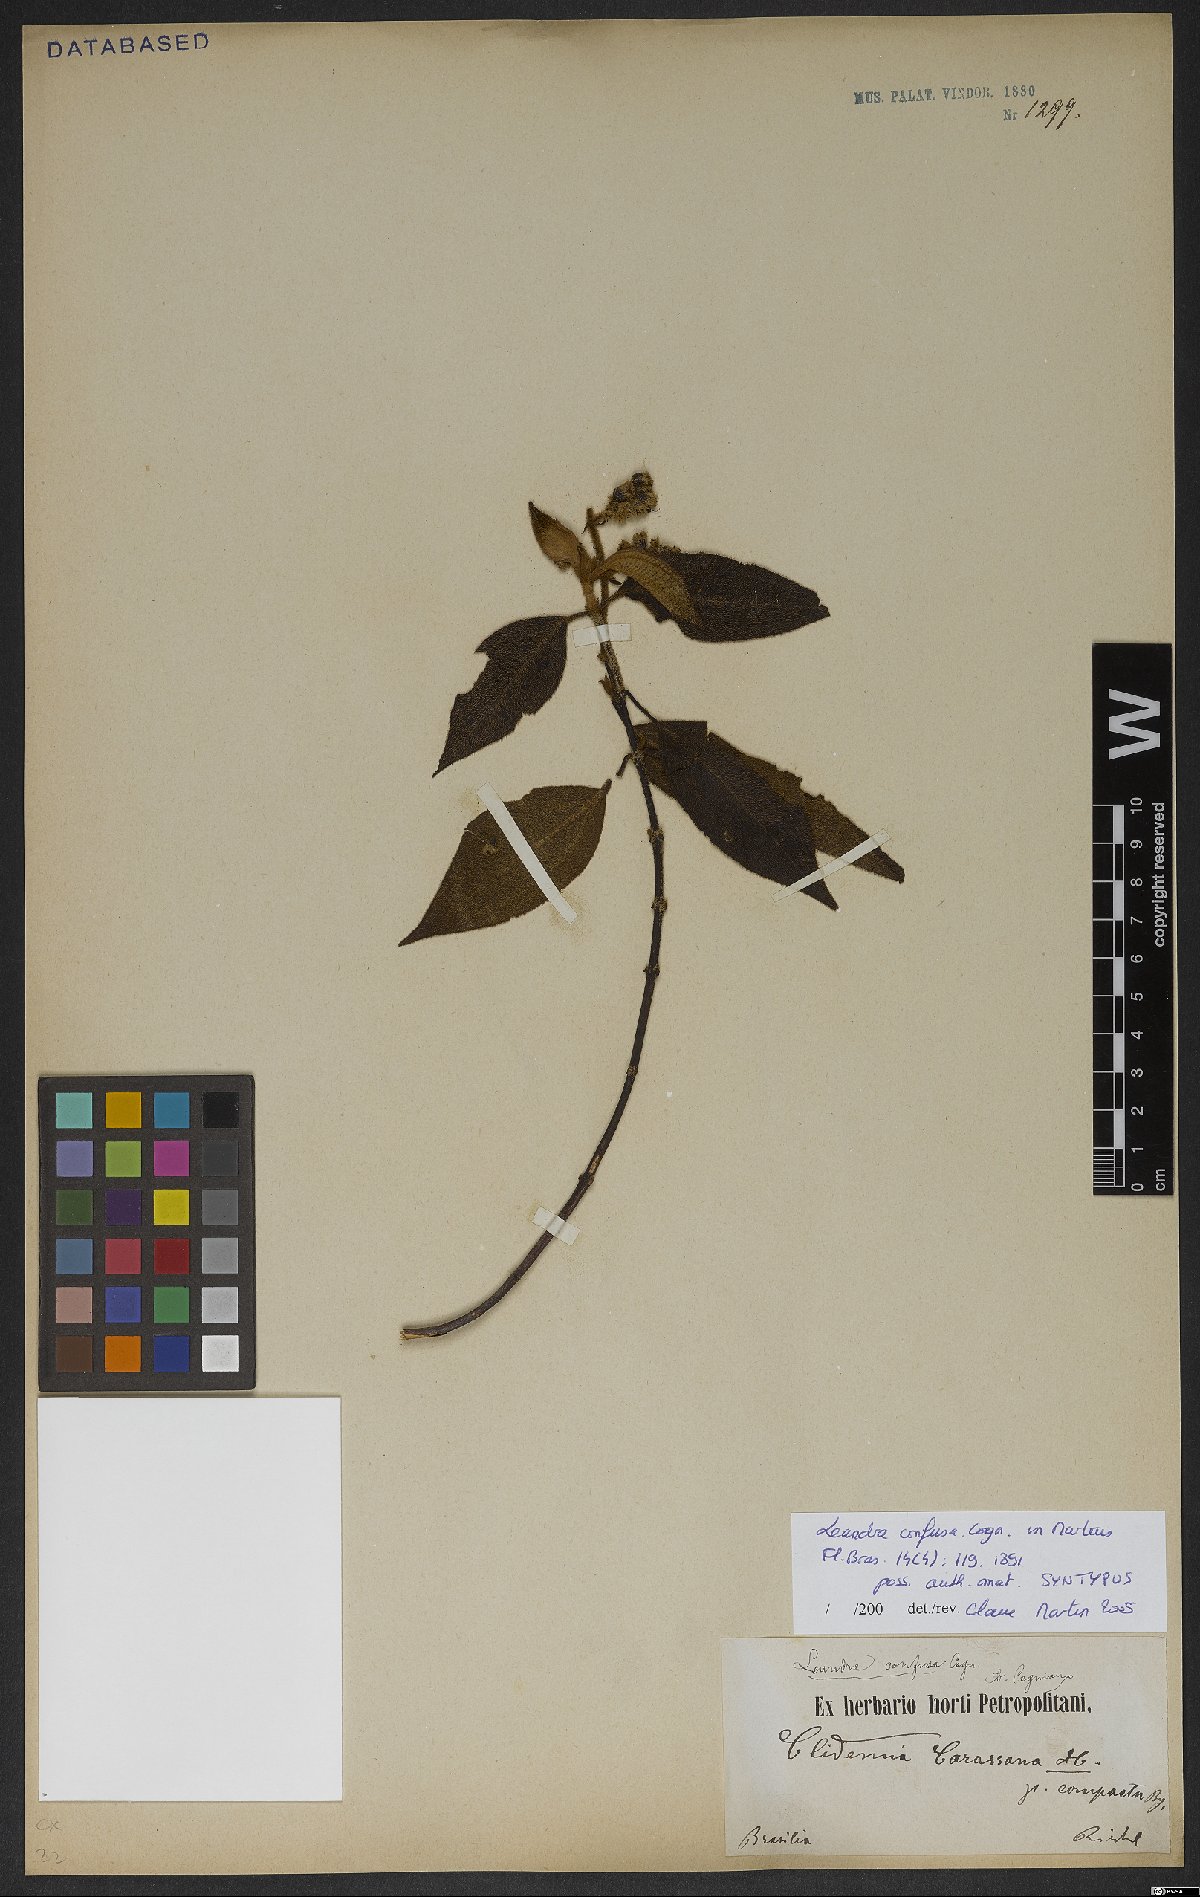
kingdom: Plantae
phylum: Tracheophyta
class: Magnoliopsida
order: Myrtales
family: Melastomataceae
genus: Miconia
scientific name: Miconia leaconfusa
